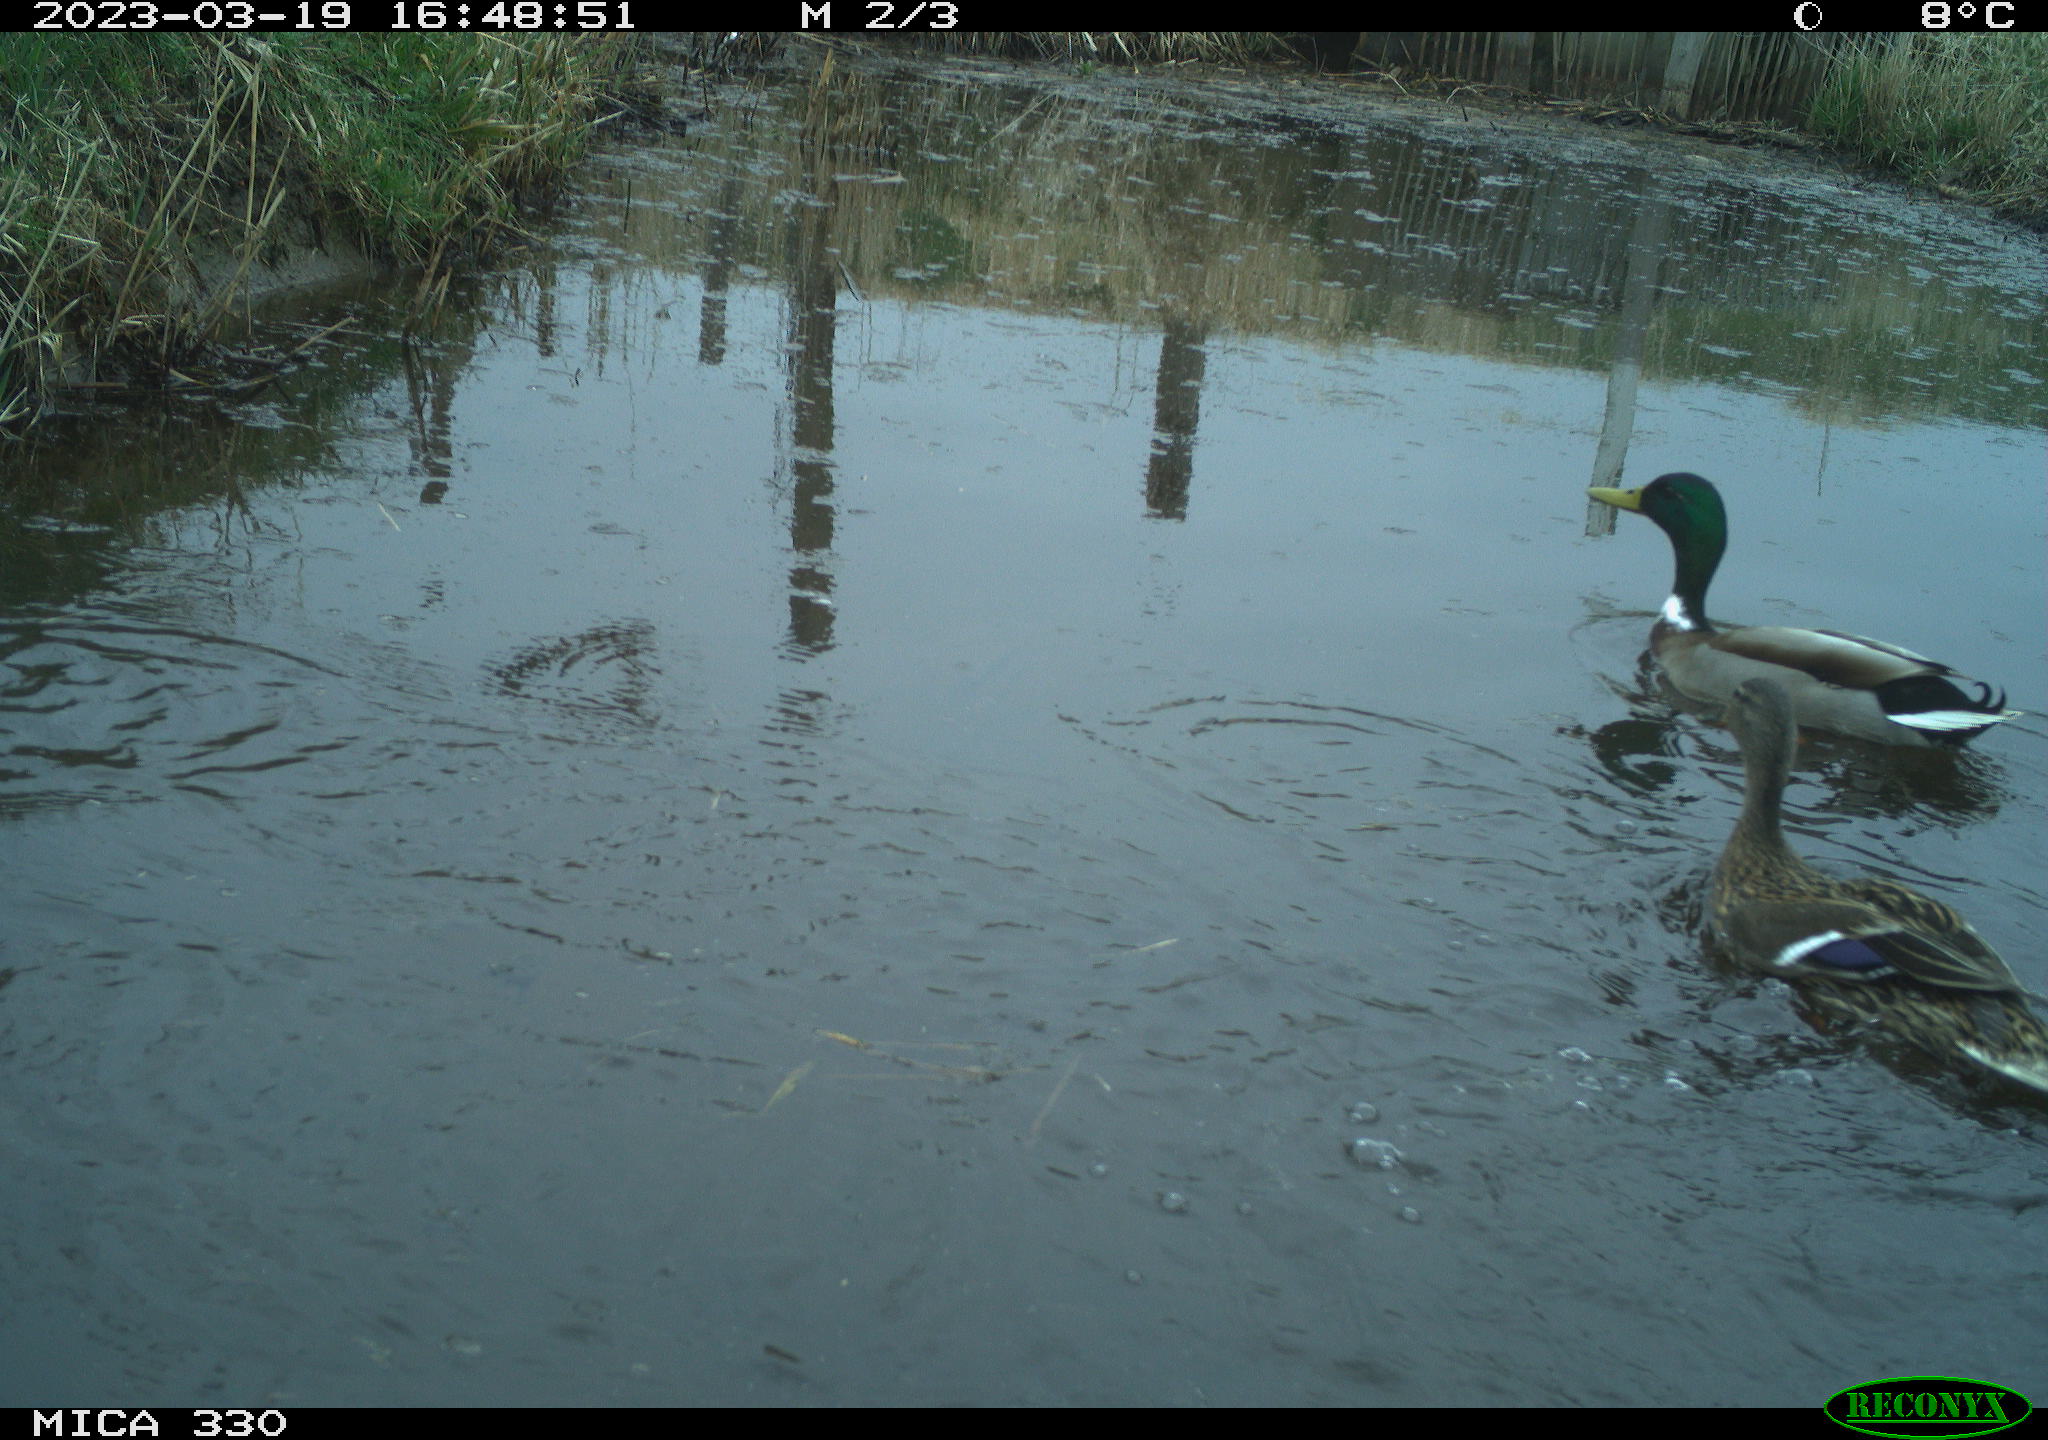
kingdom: Animalia
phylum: Chordata
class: Aves
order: Anseriformes
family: Anatidae
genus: Anas
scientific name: Anas platyrhynchos
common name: Mallard
